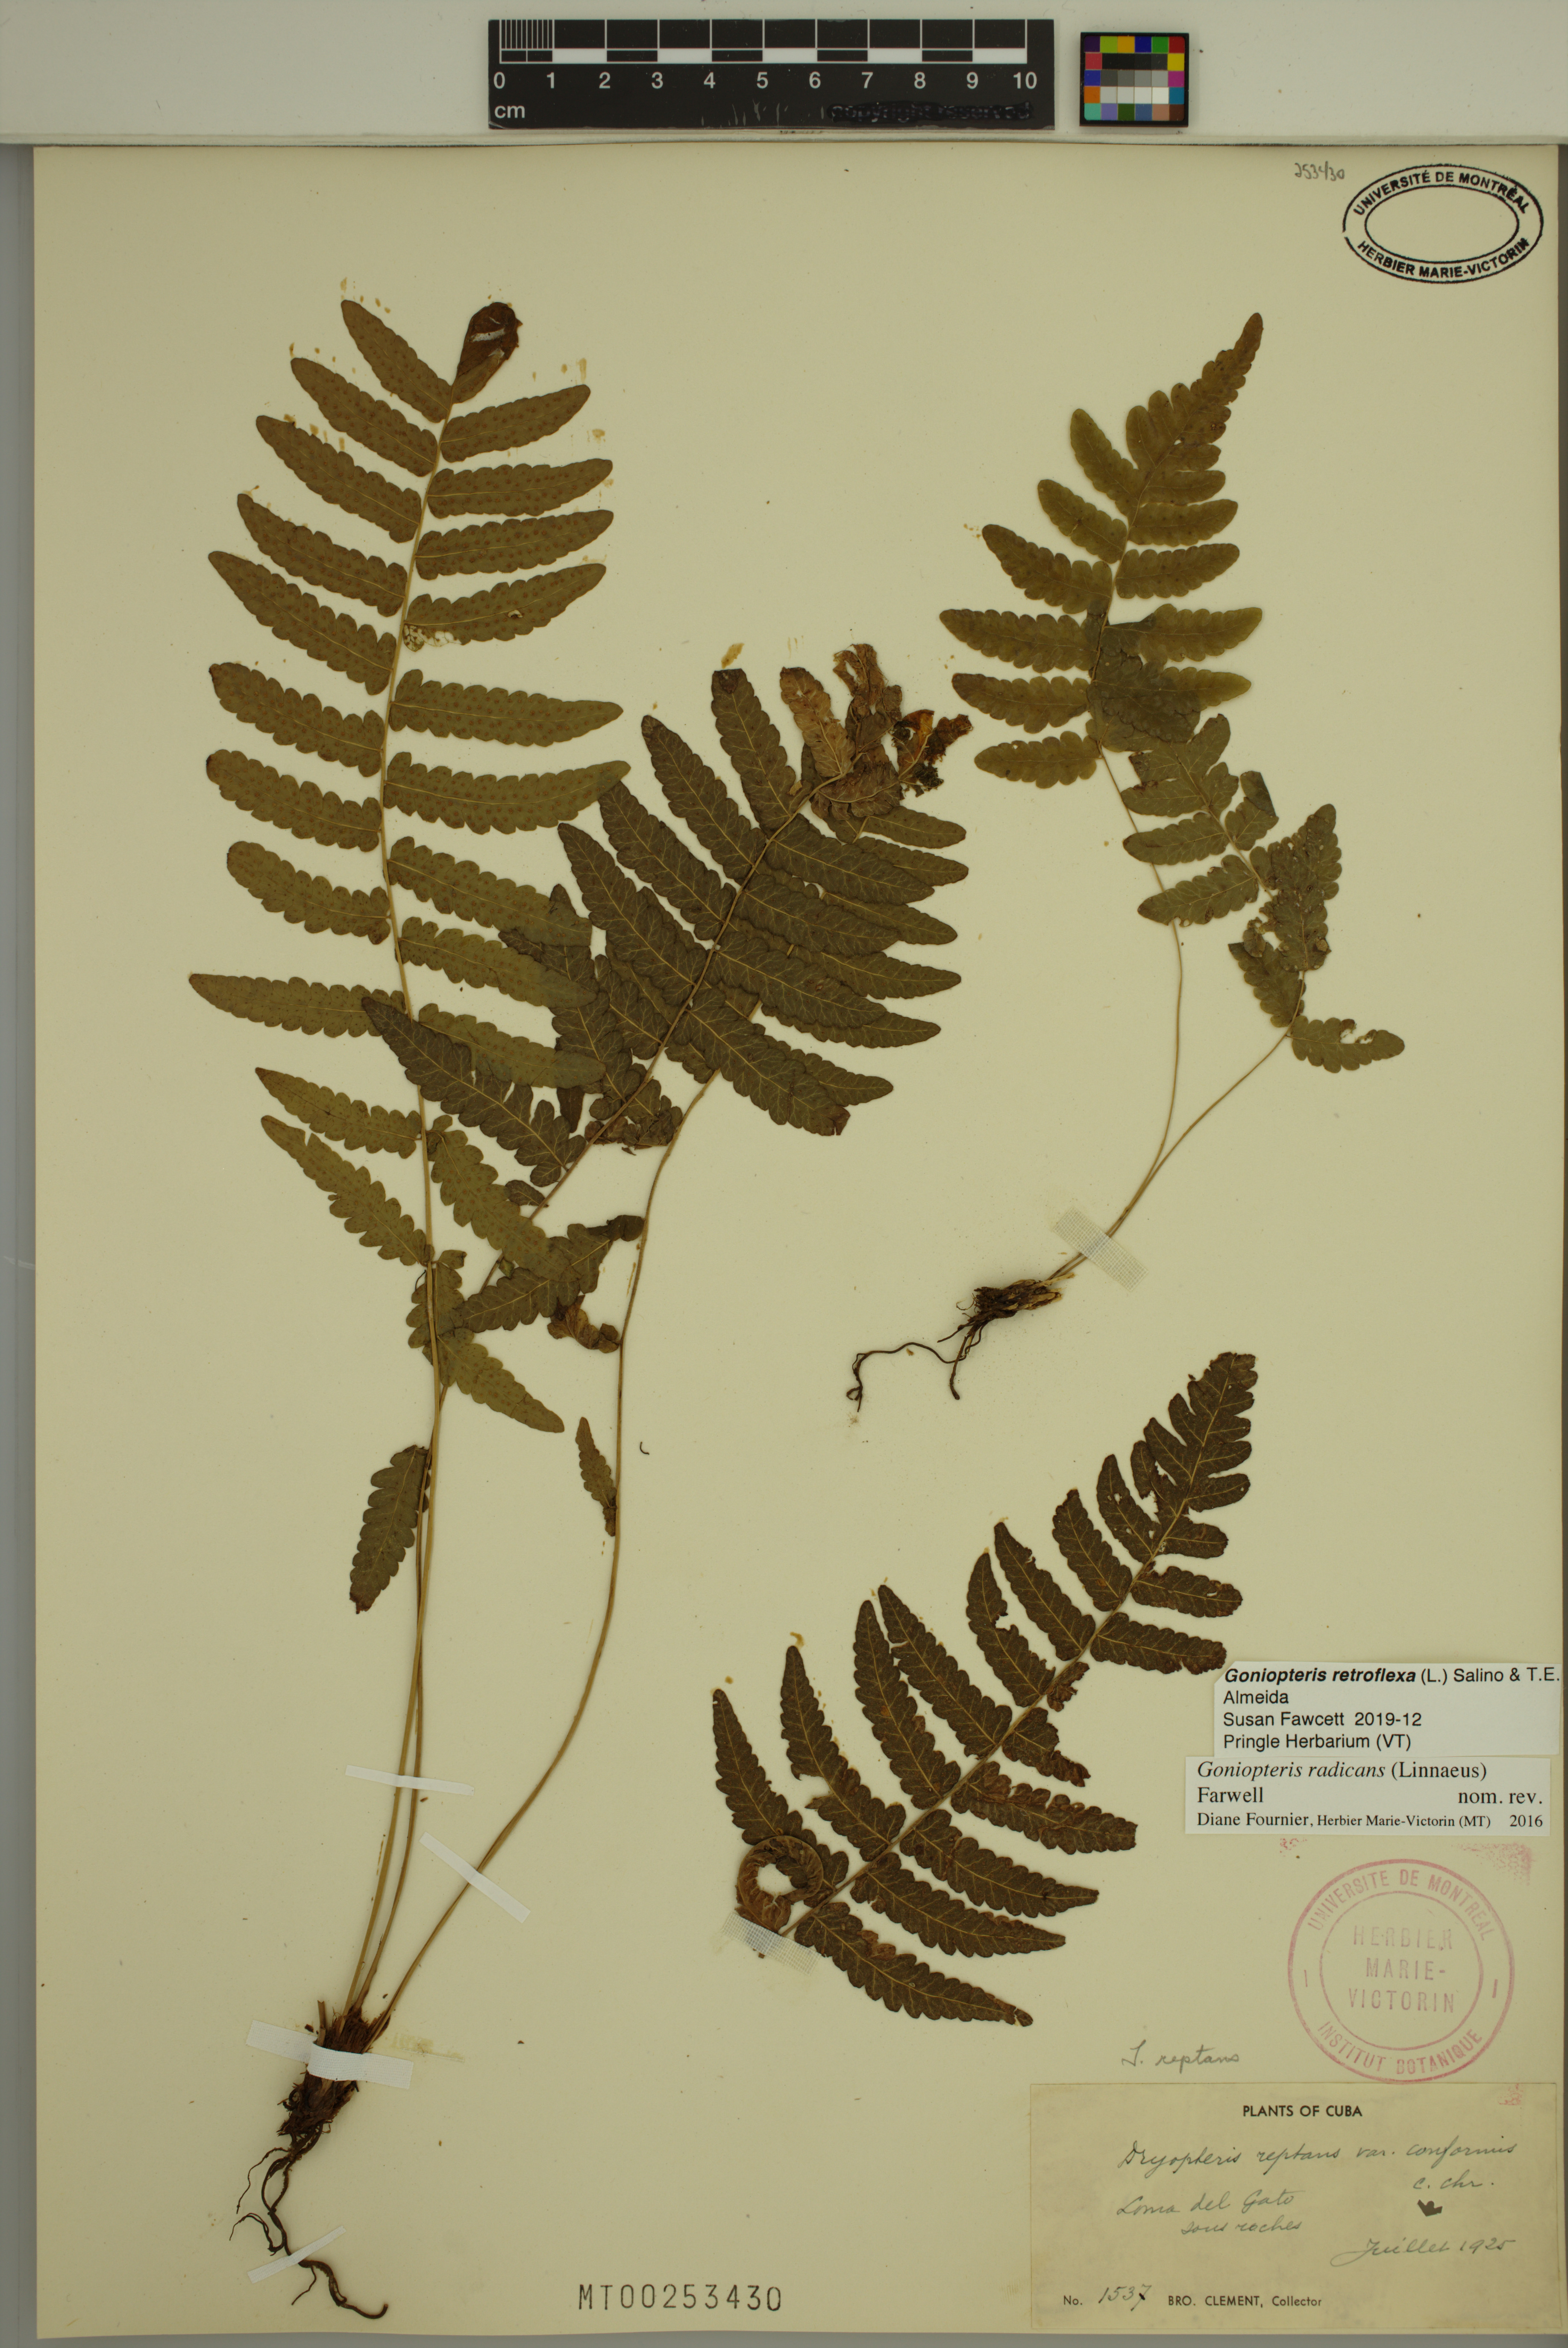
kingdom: Plantae
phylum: Tracheophyta
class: Polypodiopsida
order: Polypodiales
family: Thelypteridaceae
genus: Goniopteris
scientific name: Goniopteris retroflexa
